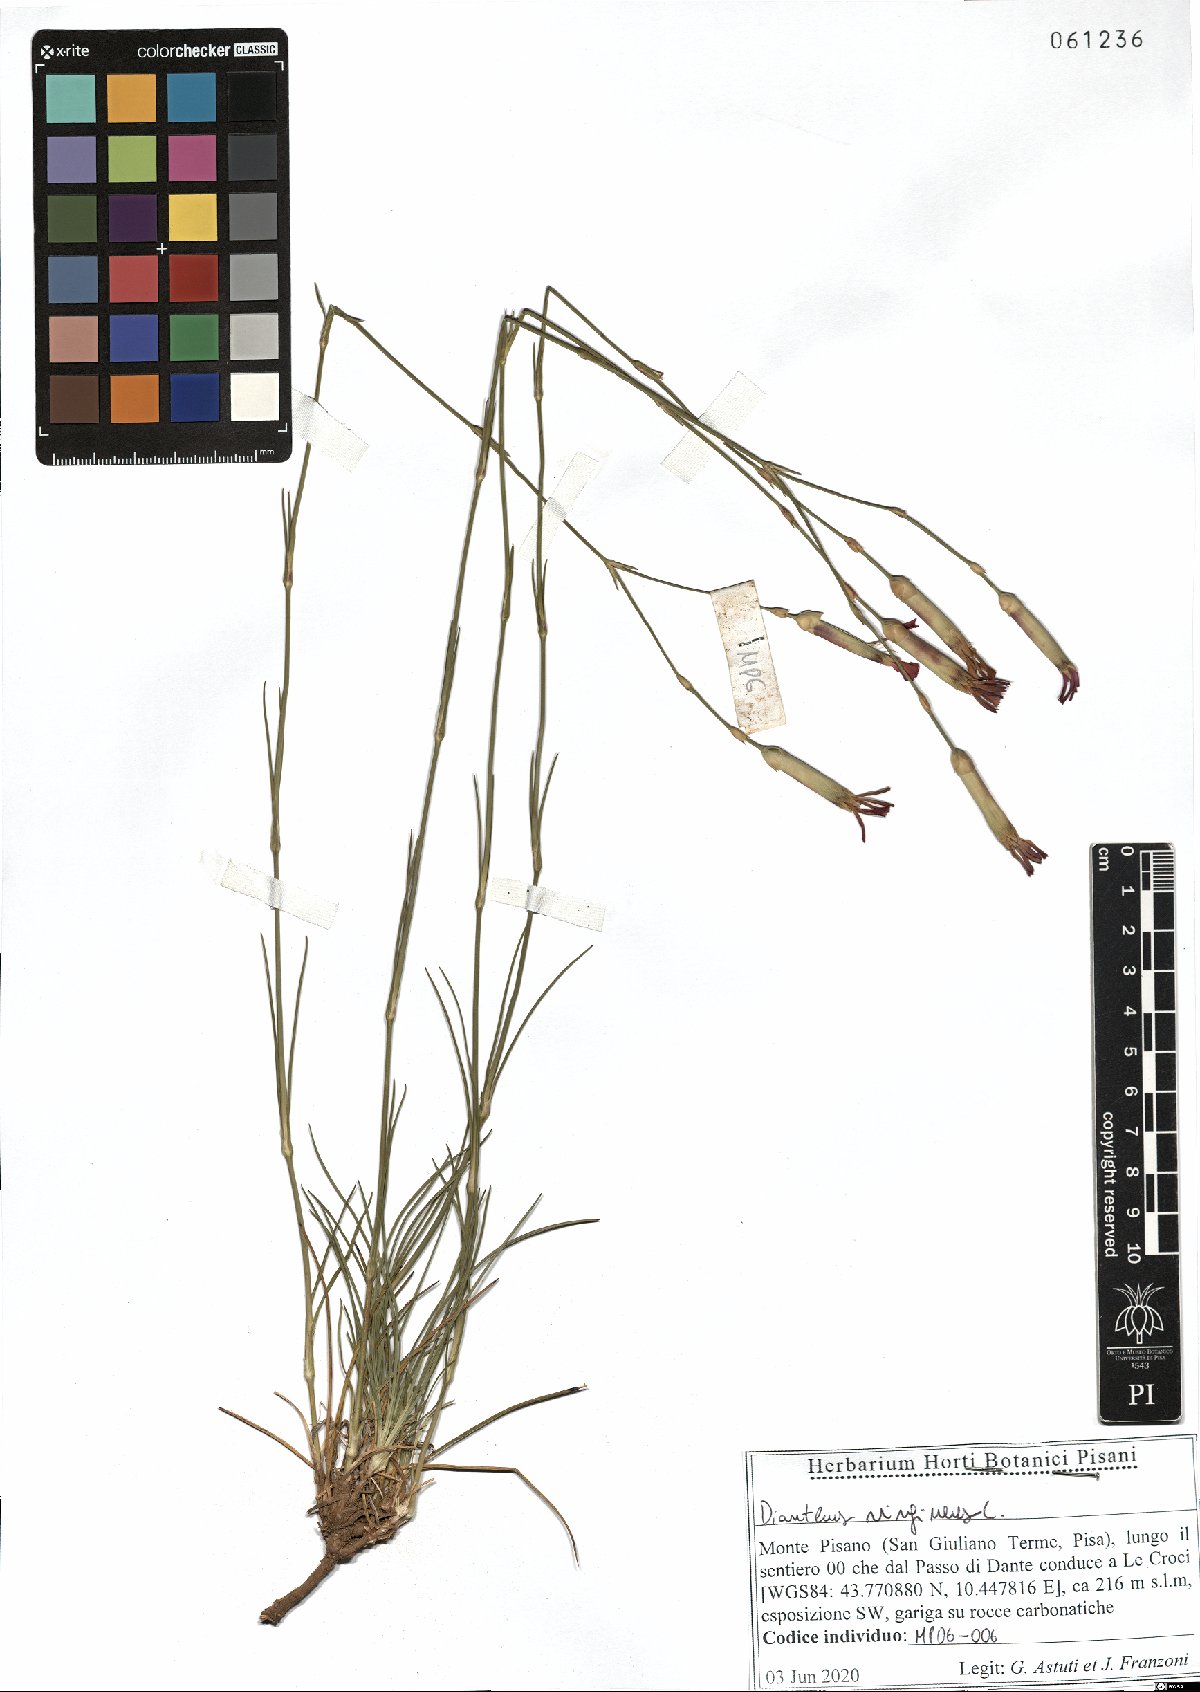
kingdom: Plantae
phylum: Tracheophyta
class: Magnoliopsida
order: Caryophyllales
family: Caryophyllaceae
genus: Dianthus
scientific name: Dianthus virgineus
